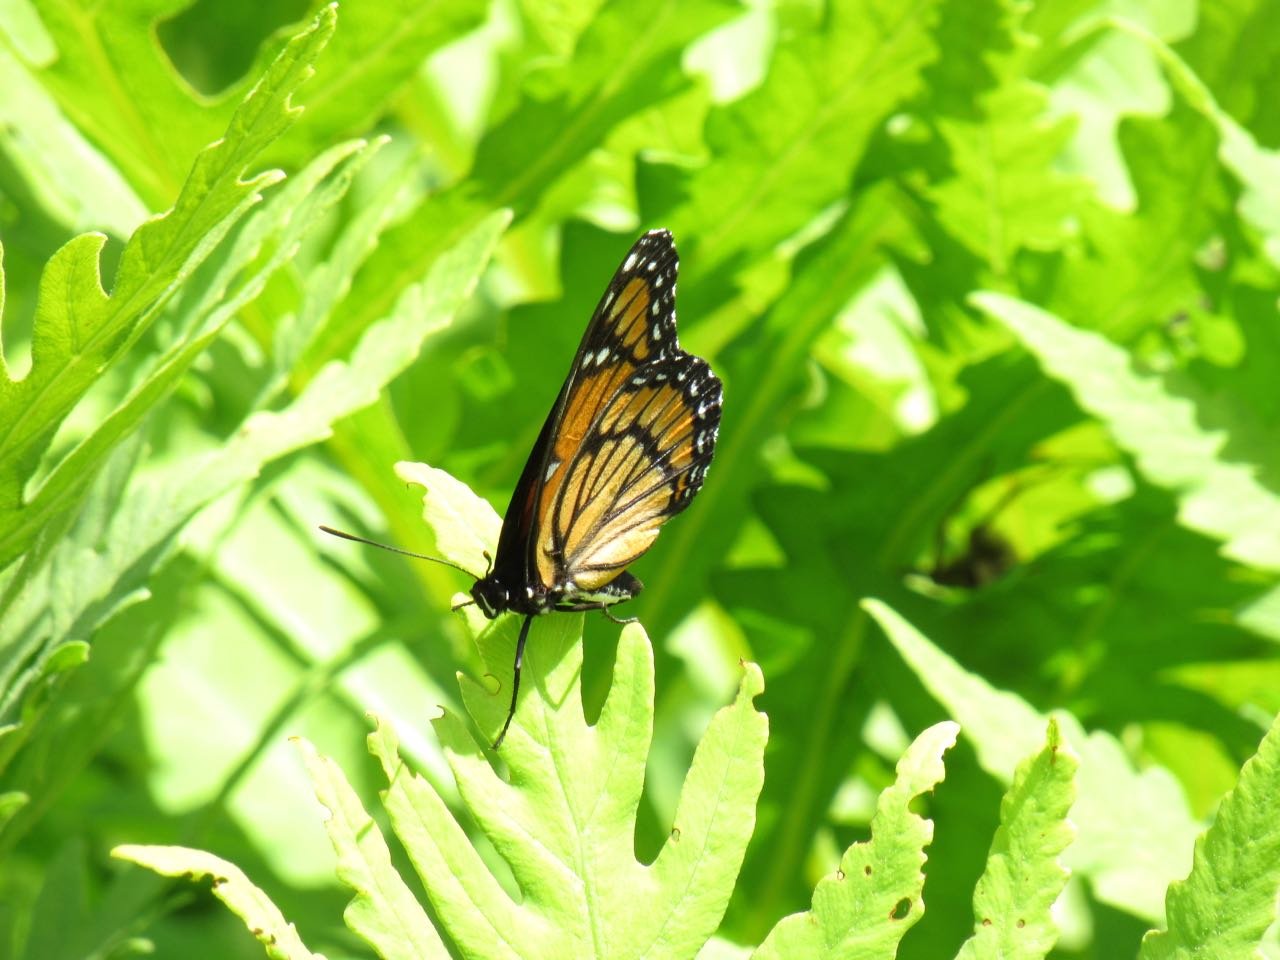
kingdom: Animalia
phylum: Arthropoda
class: Insecta
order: Lepidoptera
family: Nymphalidae
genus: Limenitis
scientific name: Limenitis archippus
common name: Viceroy
